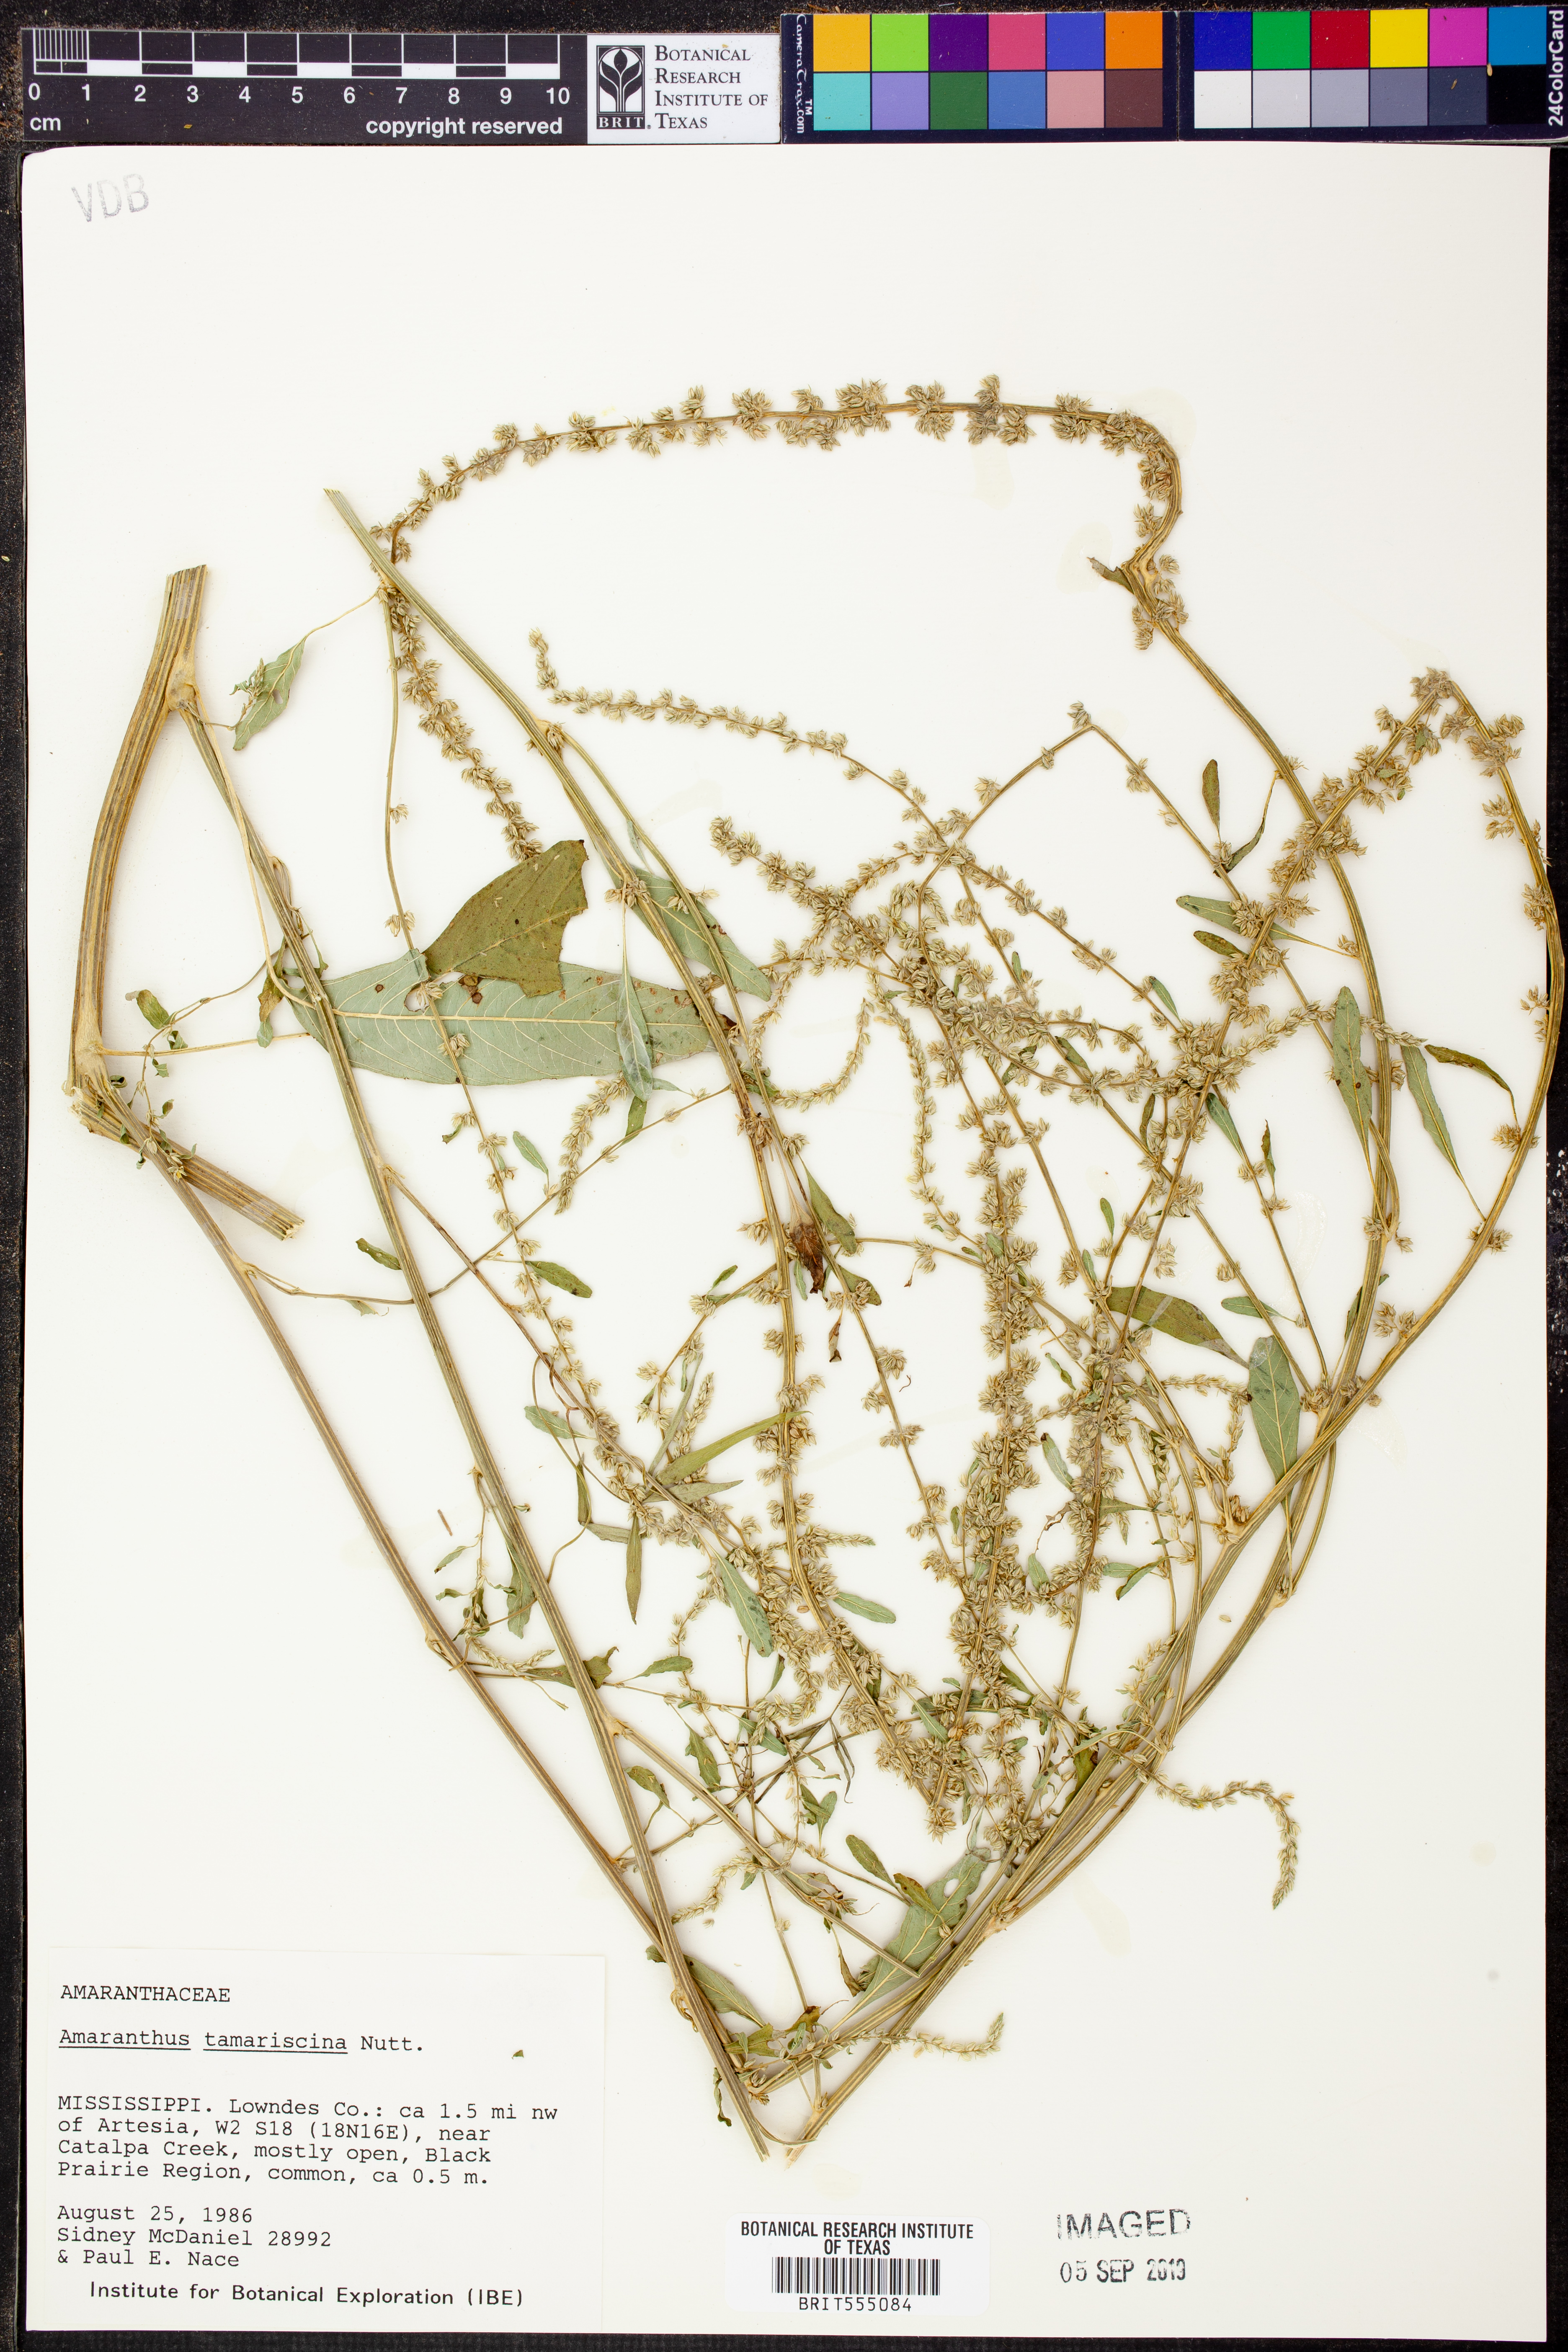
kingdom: Plantae
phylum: Tracheophyta
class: Magnoliopsida
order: Caryophyllales
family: Amaranthaceae
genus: Amaranthus
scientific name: Amaranthus tamariscinus
